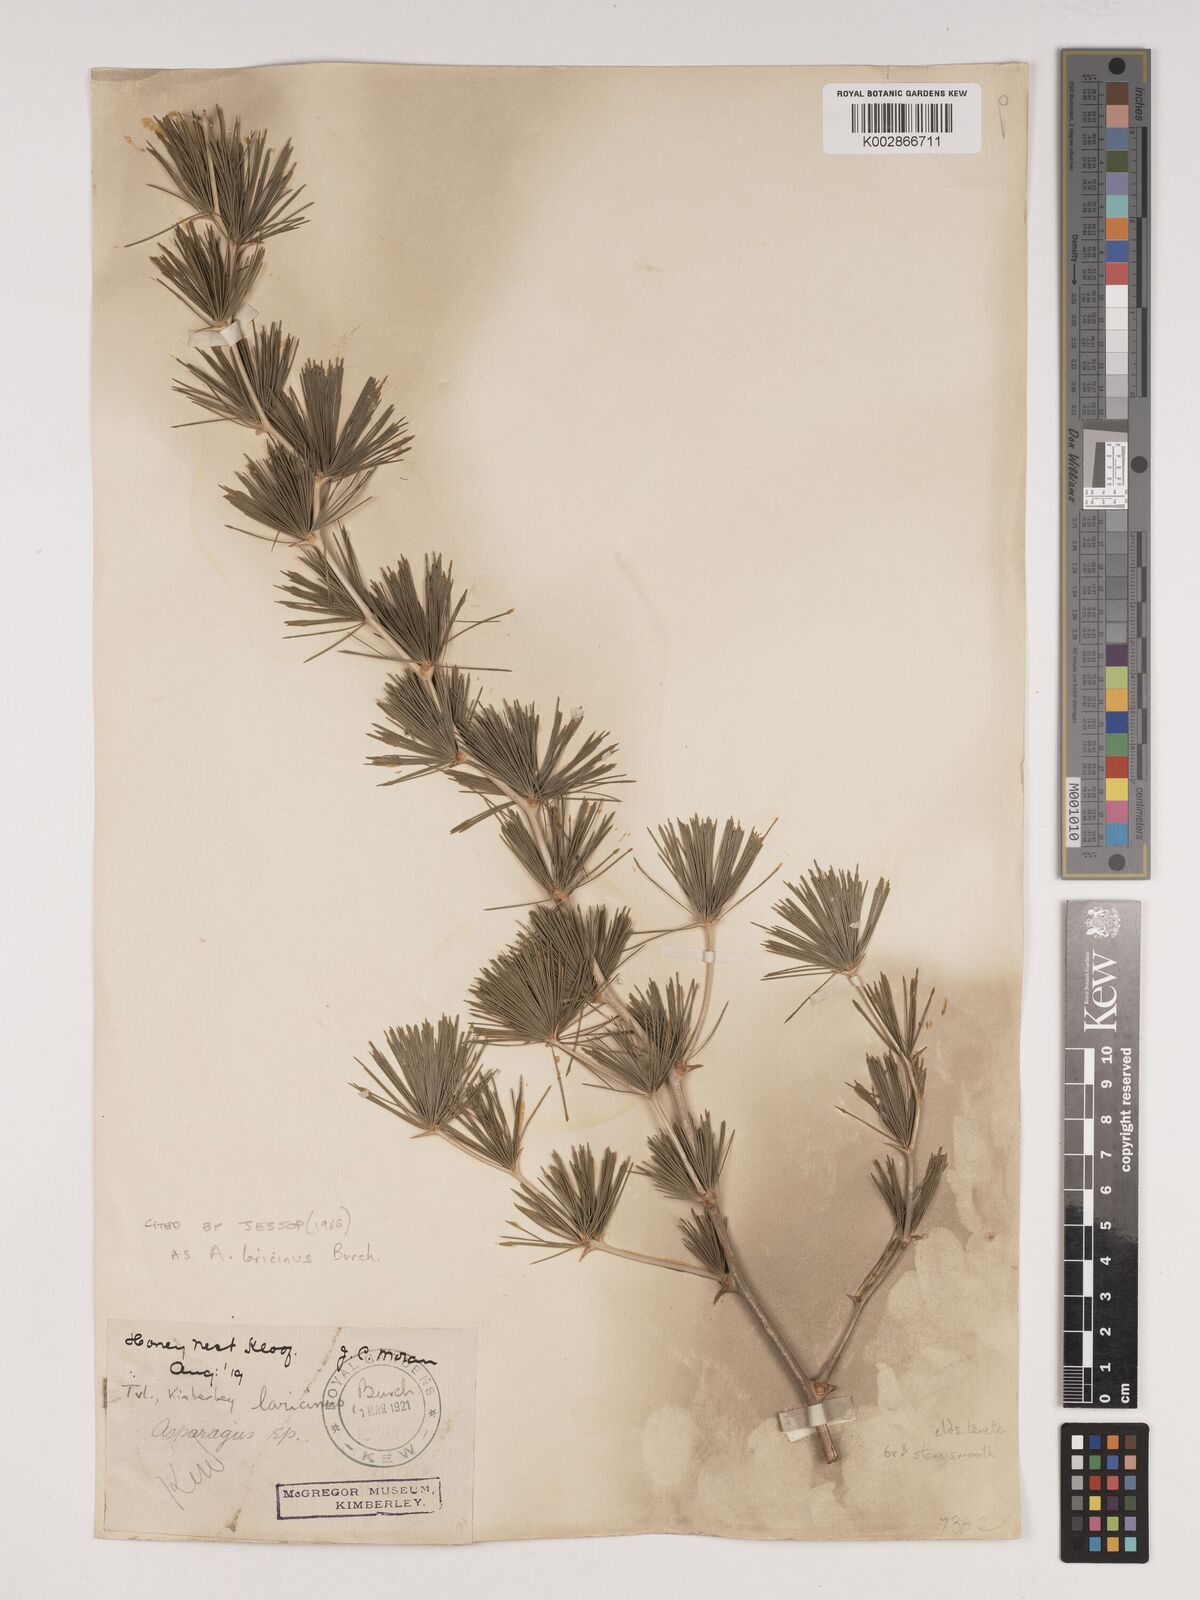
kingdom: Plantae
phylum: Tracheophyta
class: Liliopsida
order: Asparagales
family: Asparagaceae
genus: Asparagus
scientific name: Asparagus laricinus
